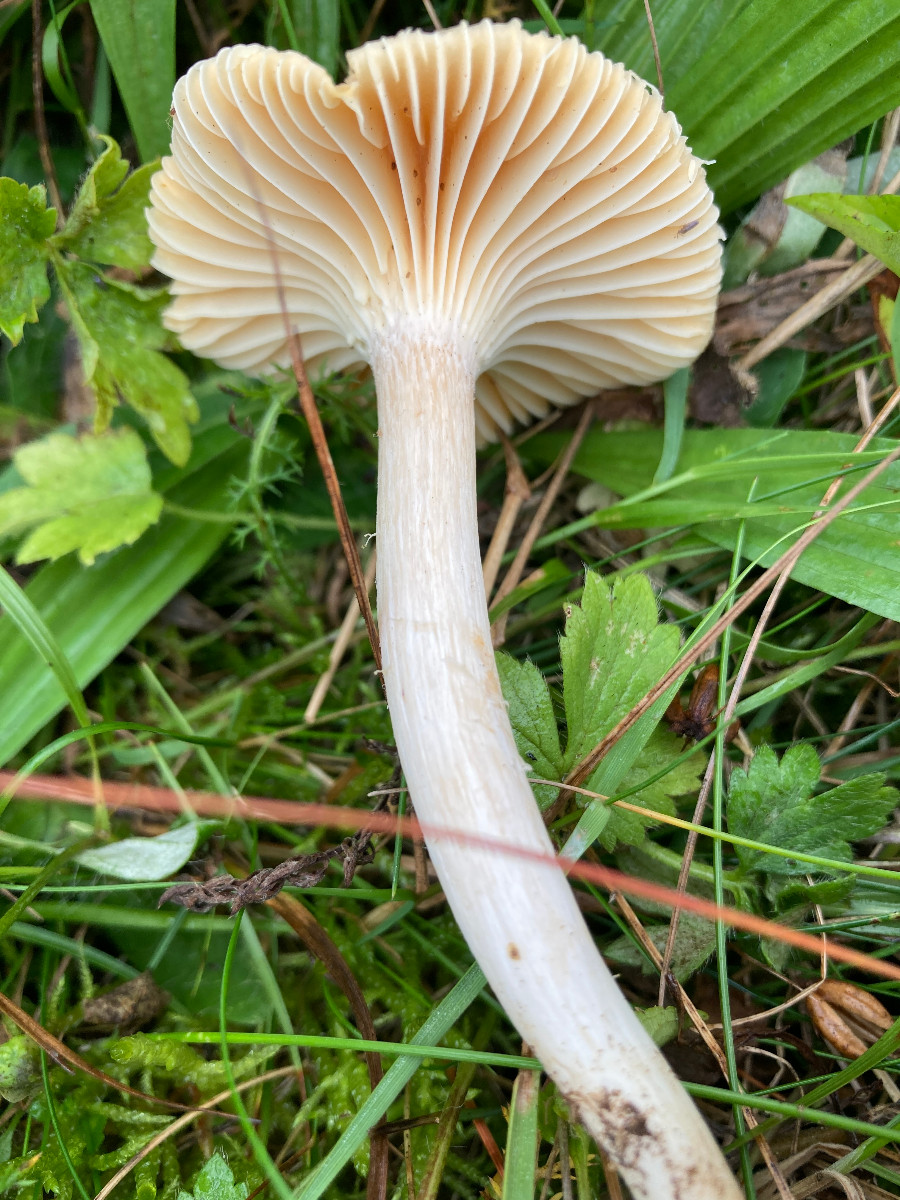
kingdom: Fungi
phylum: Basidiomycota
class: Agaricomycetes
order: Agaricales
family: Hygrophoraceae
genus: Cuphophyllus
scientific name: Cuphophyllus pratensis
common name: eng-vokshat
